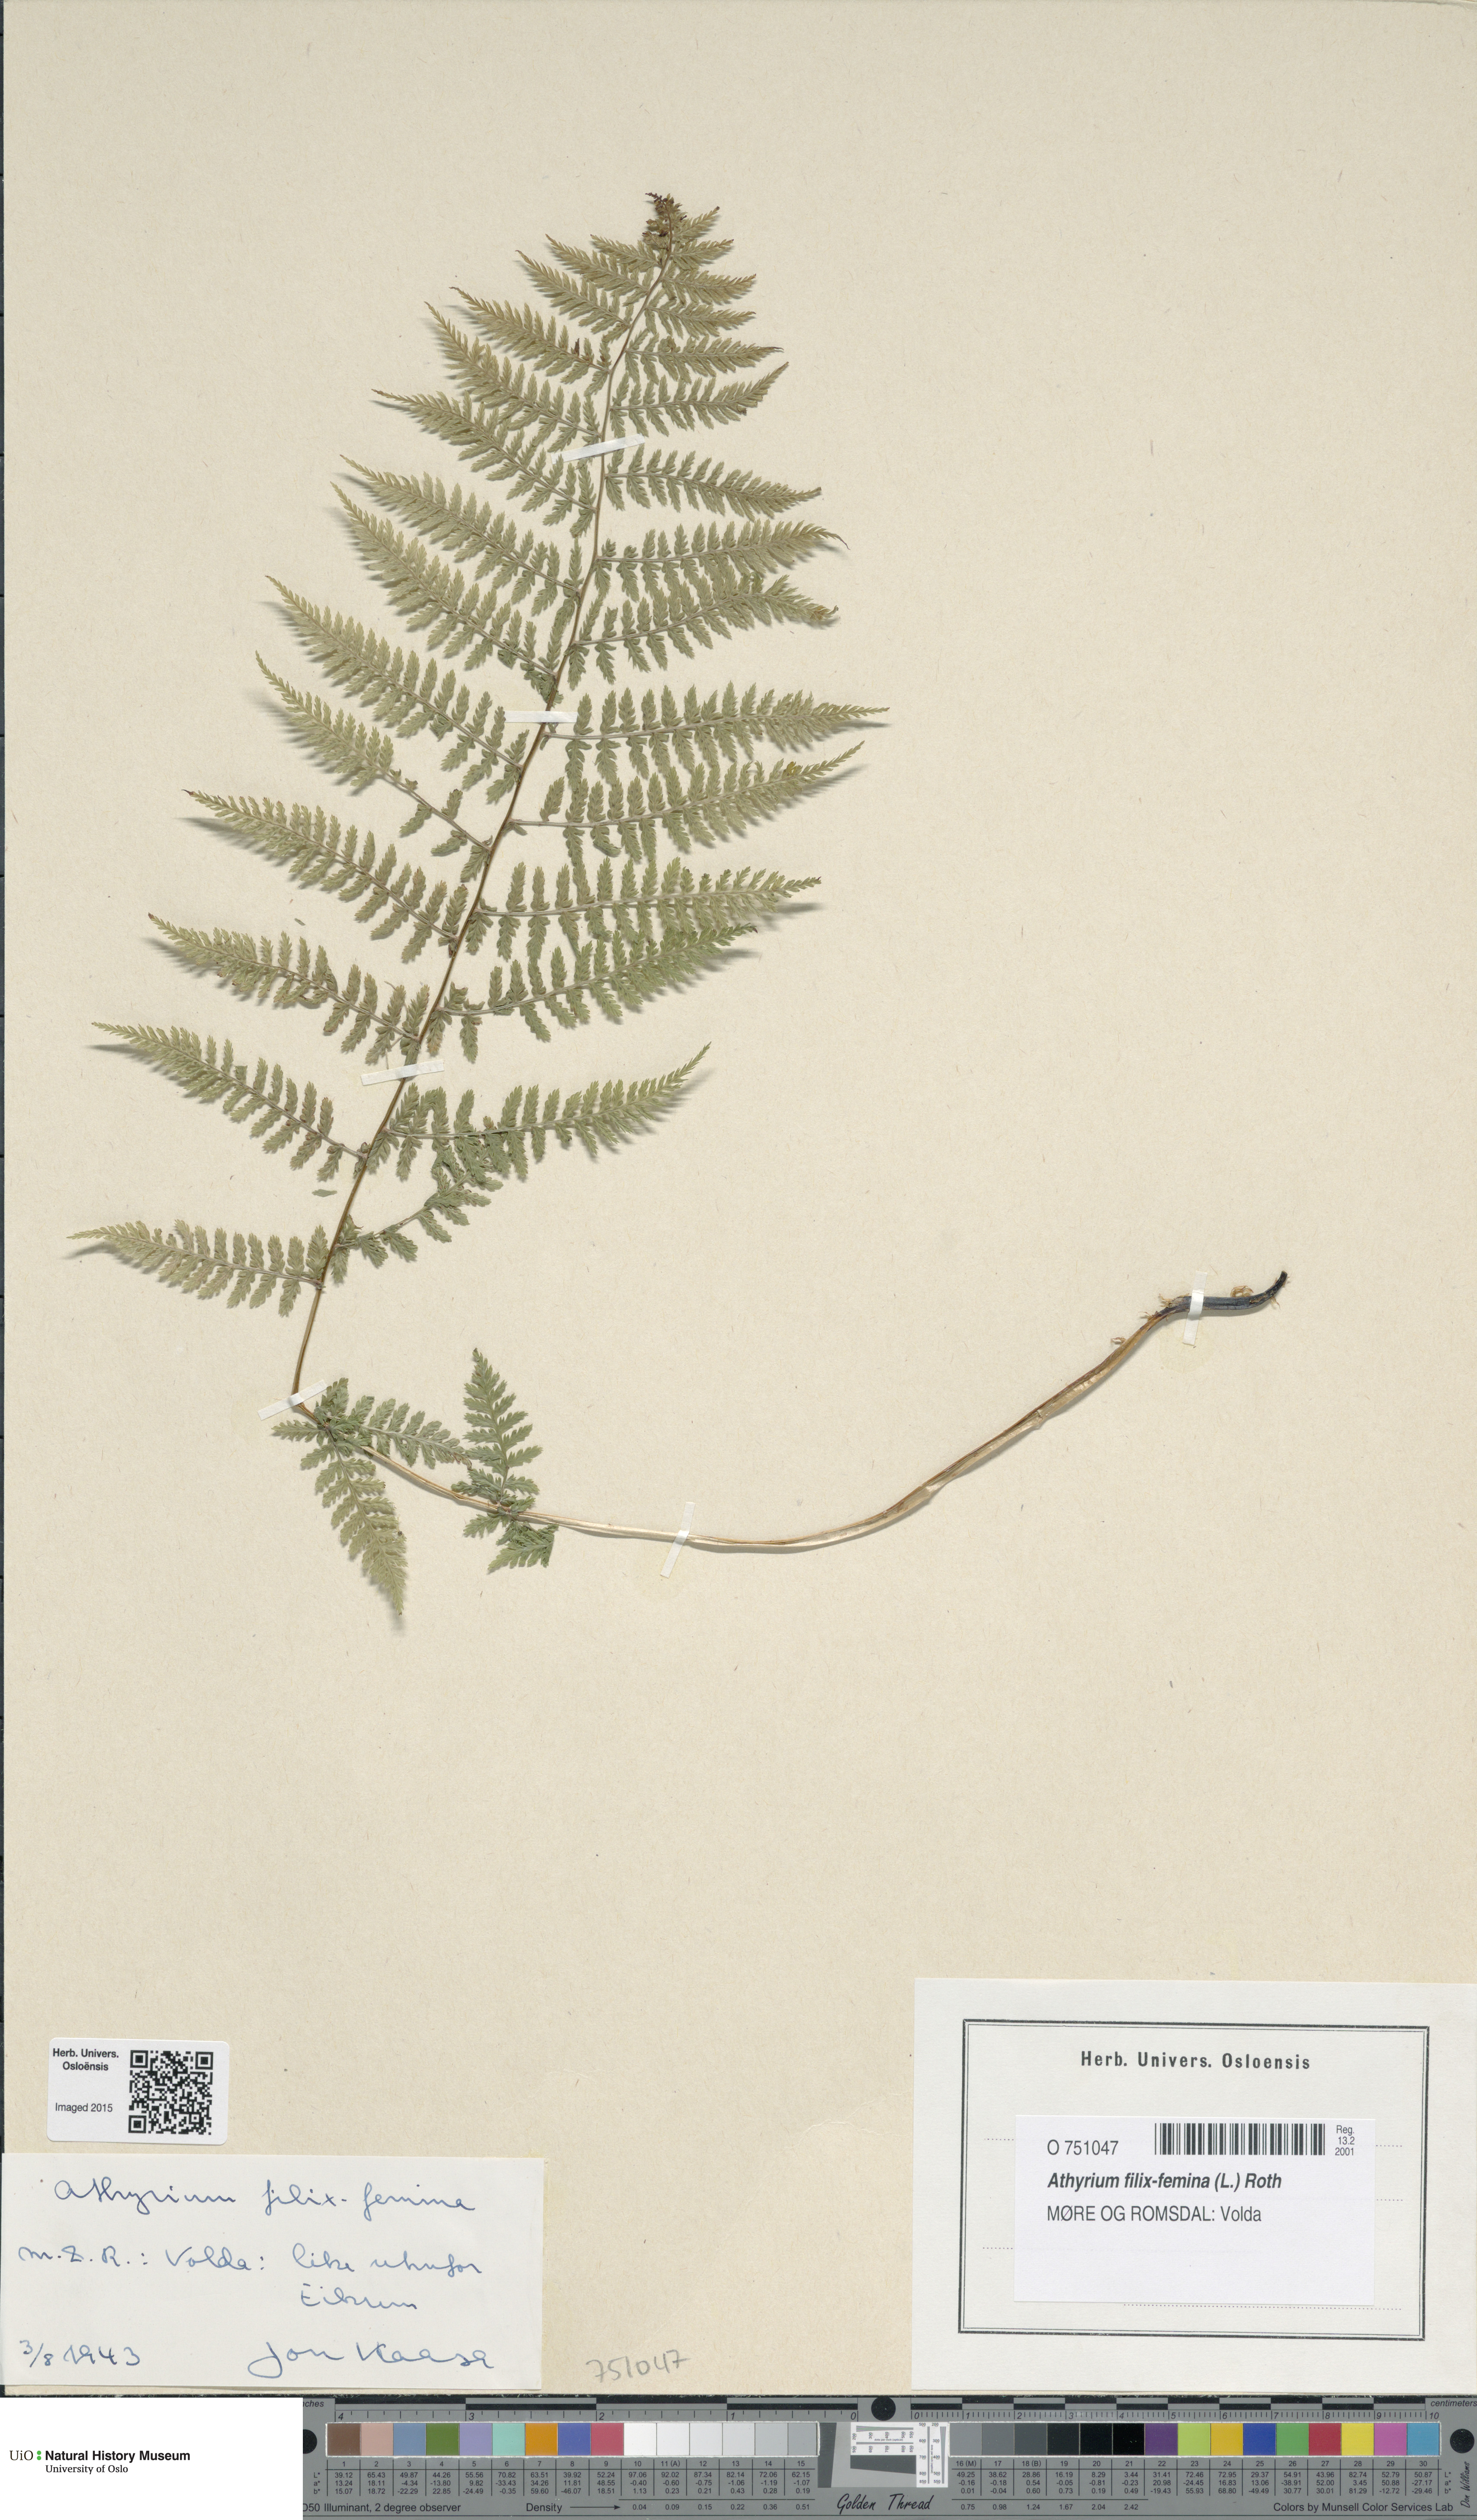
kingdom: Plantae
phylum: Tracheophyta
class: Polypodiopsida
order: Polypodiales
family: Athyriaceae
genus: Athyrium
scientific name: Athyrium filix-femina
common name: Lady fern
